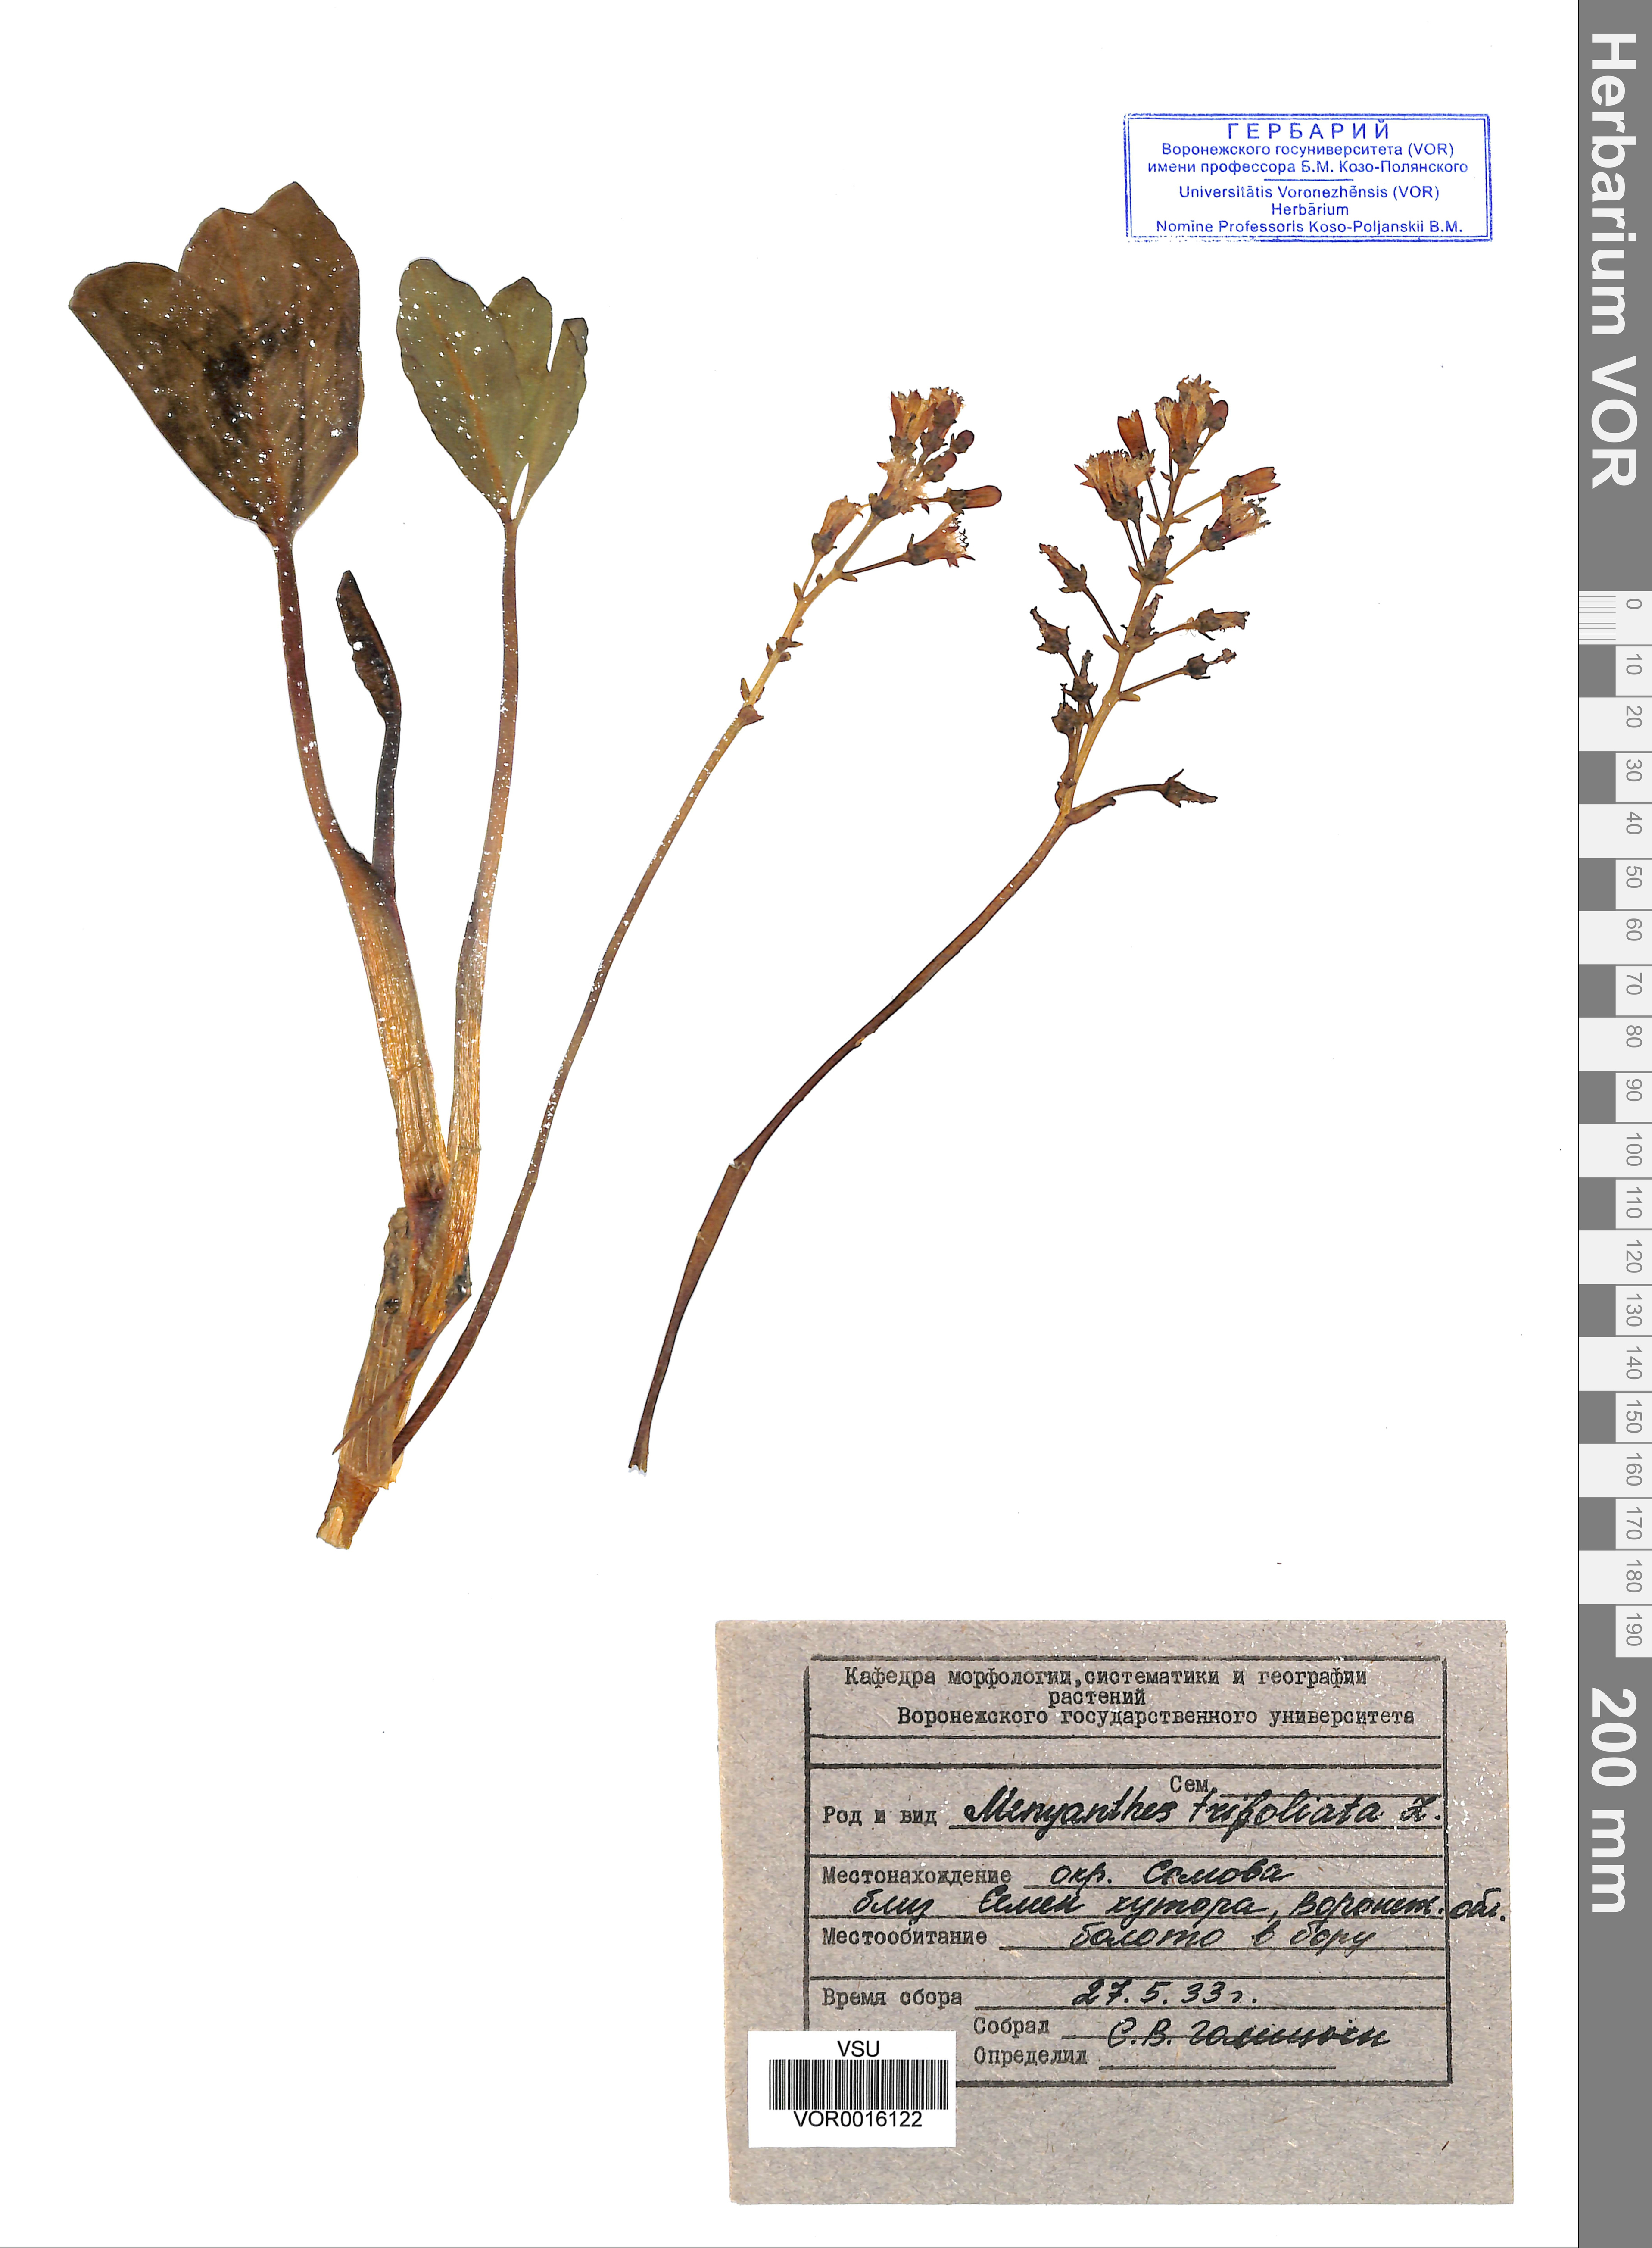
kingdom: Plantae
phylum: Tracheophyta
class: Magnoliopsida
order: Asterales
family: Menyanthaceae
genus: Menyanthes
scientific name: Menyanthes trifoliata
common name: Bogbean
